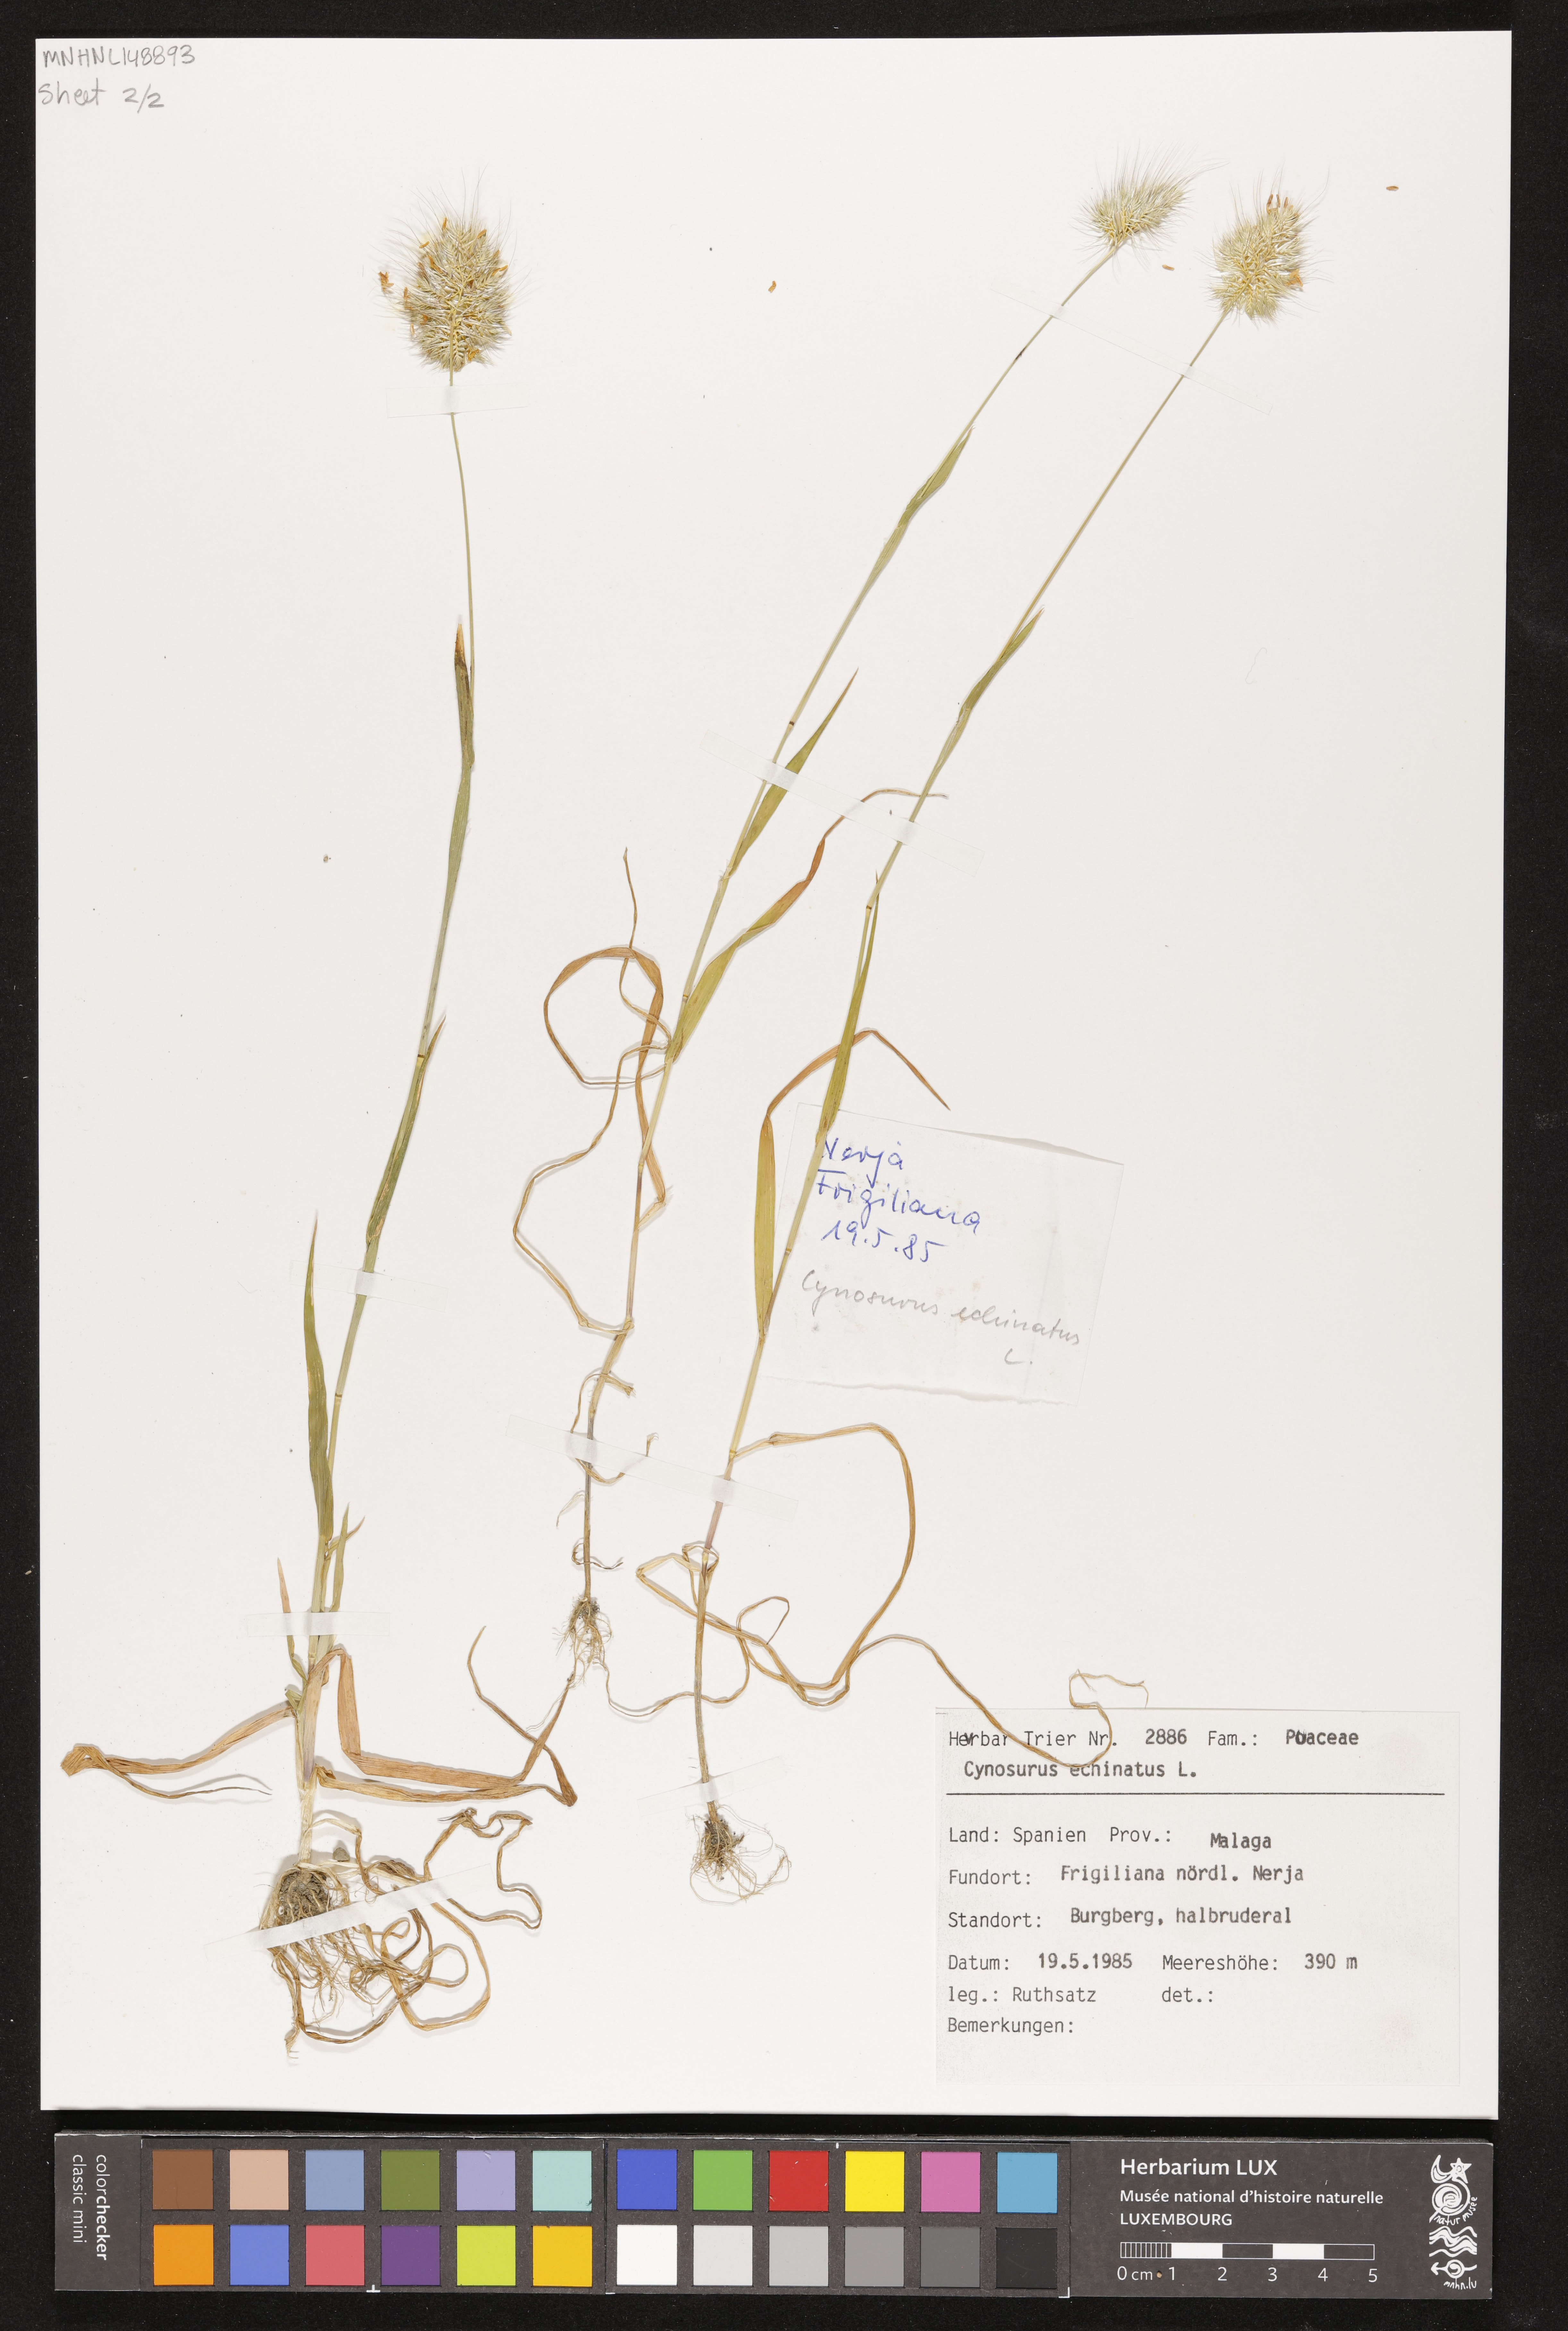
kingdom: Plantae
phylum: Tracheophyta
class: Liliopsida
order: Poales
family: Poaceae
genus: Cynosurus
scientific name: Cynosurus echinatus
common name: Rough dog's-tail
